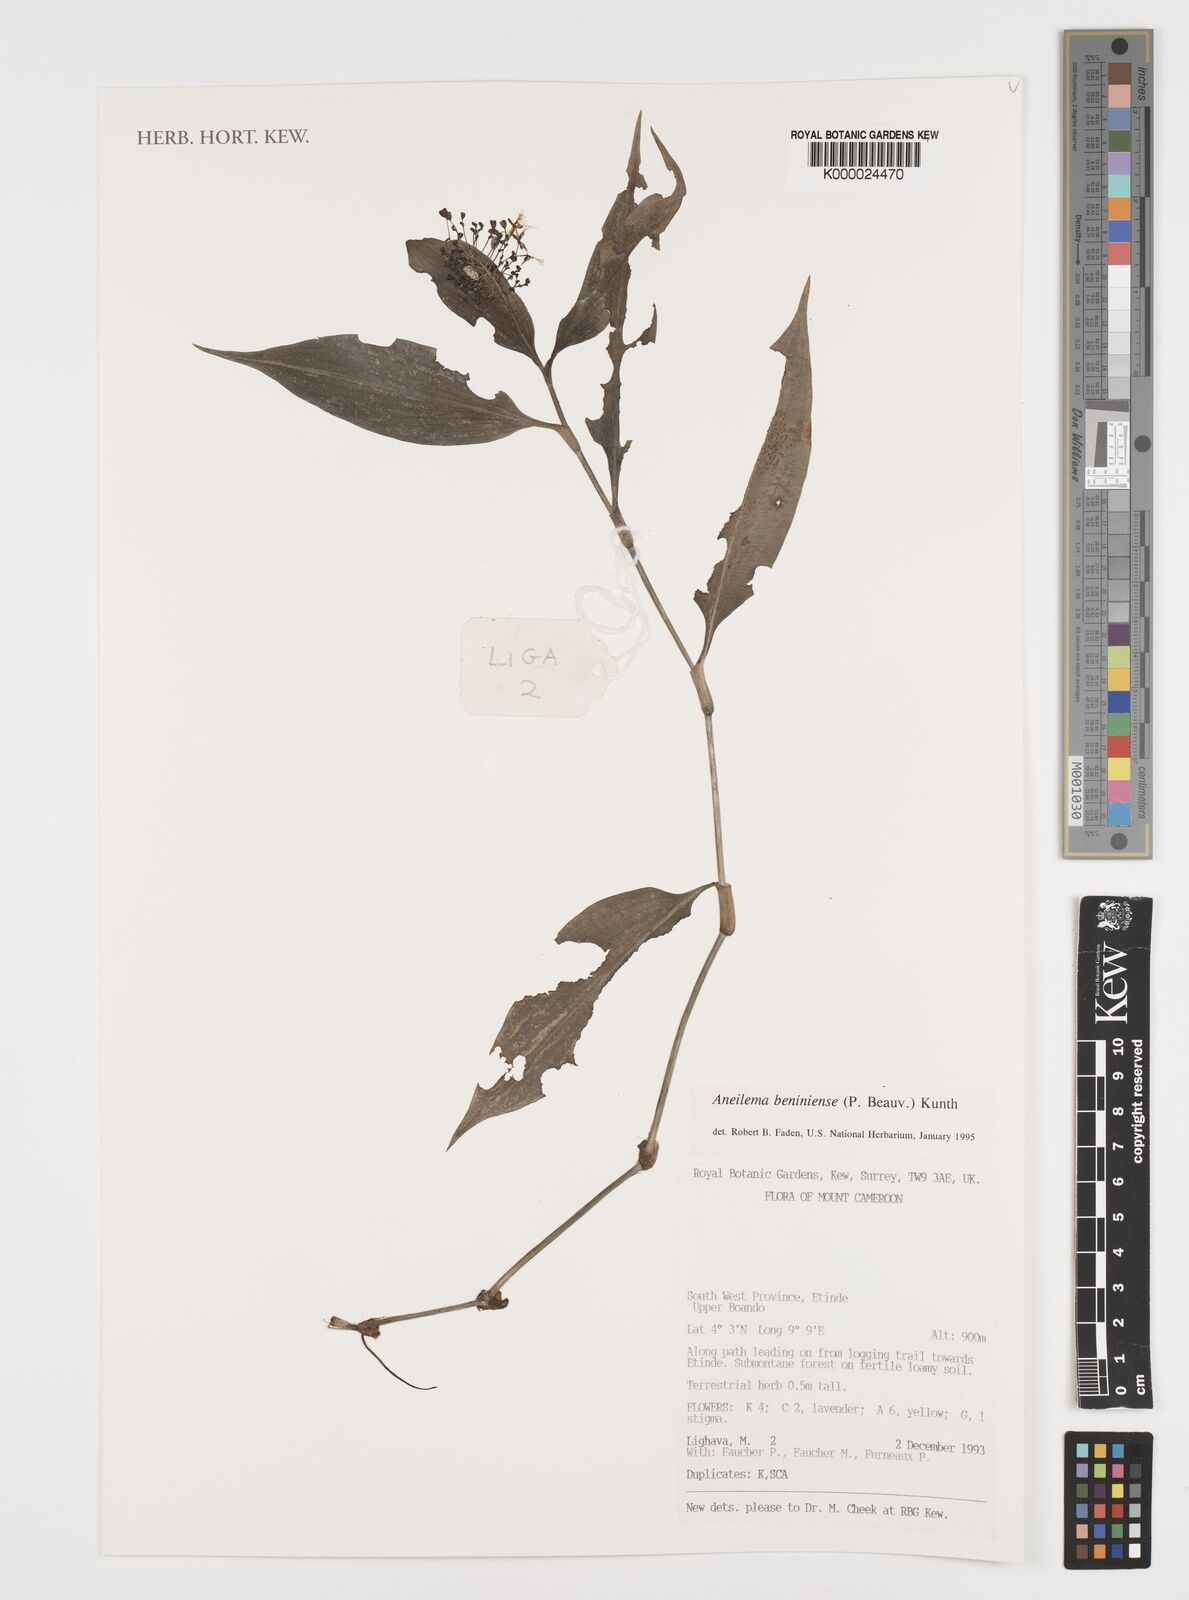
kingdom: Plantae
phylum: Tracheophyta
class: Liliopsida
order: Commelinales
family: Commelinaceae
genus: Aneilema
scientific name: Aneilema beniniense
